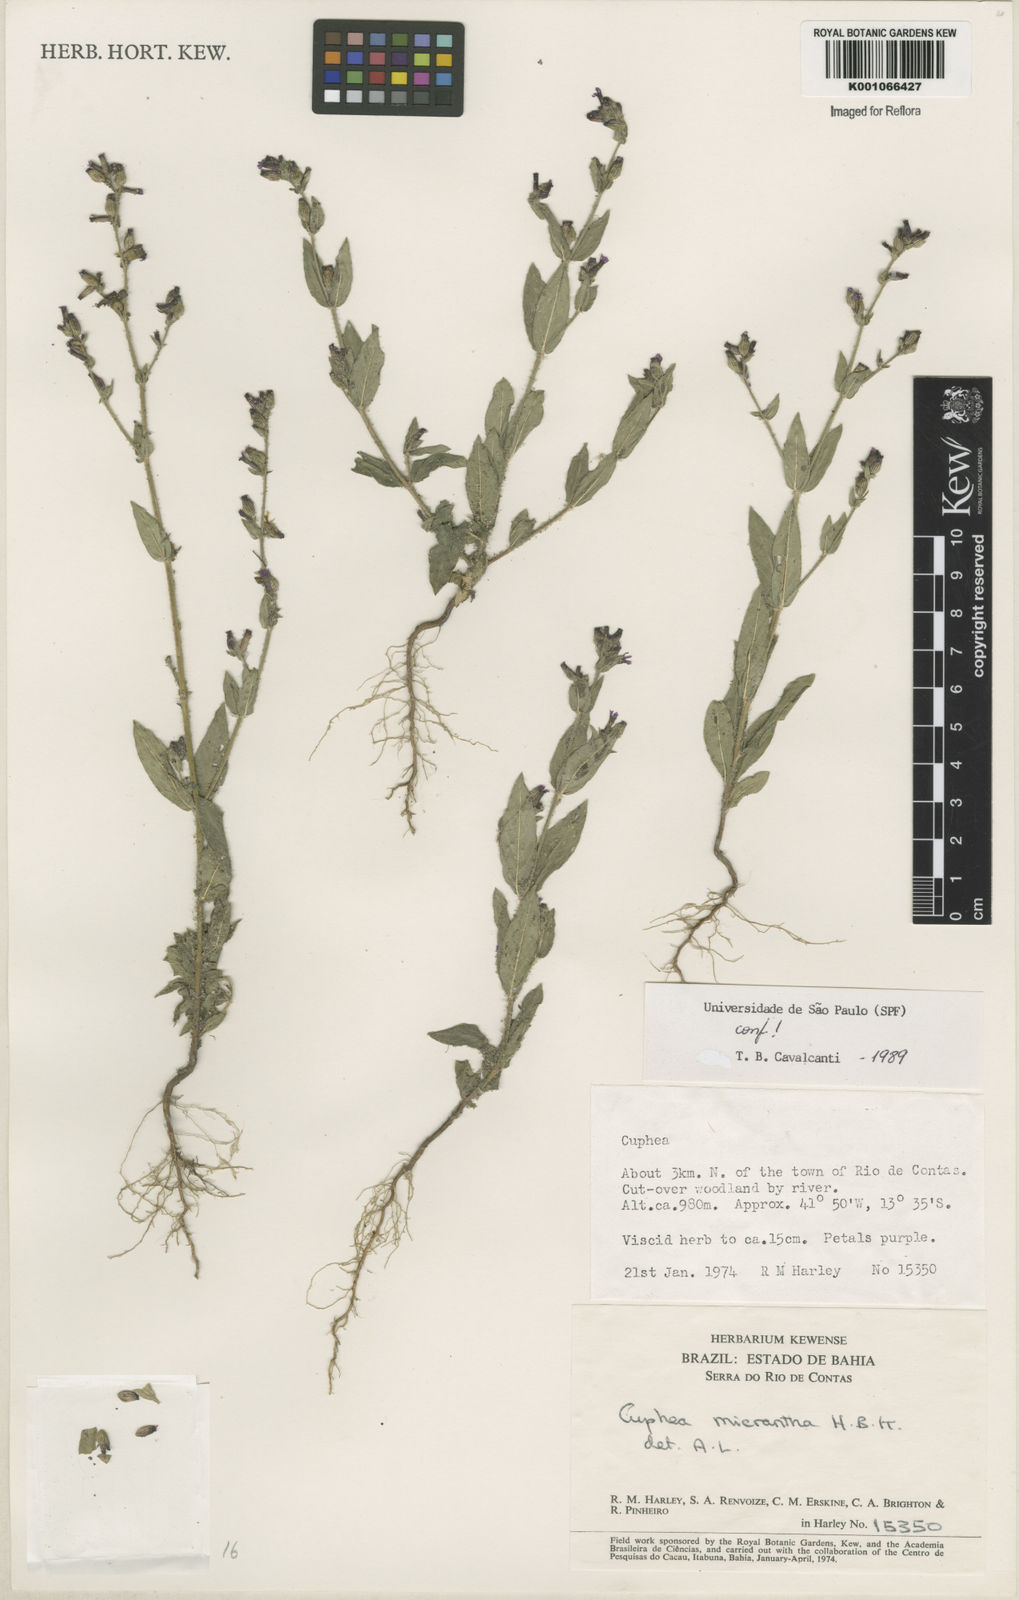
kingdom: Plantae
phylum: Tracheophyta
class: Magnoliopsida
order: Myrtales
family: Lythraceae
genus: Cuphea
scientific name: Cuphea micrantha
